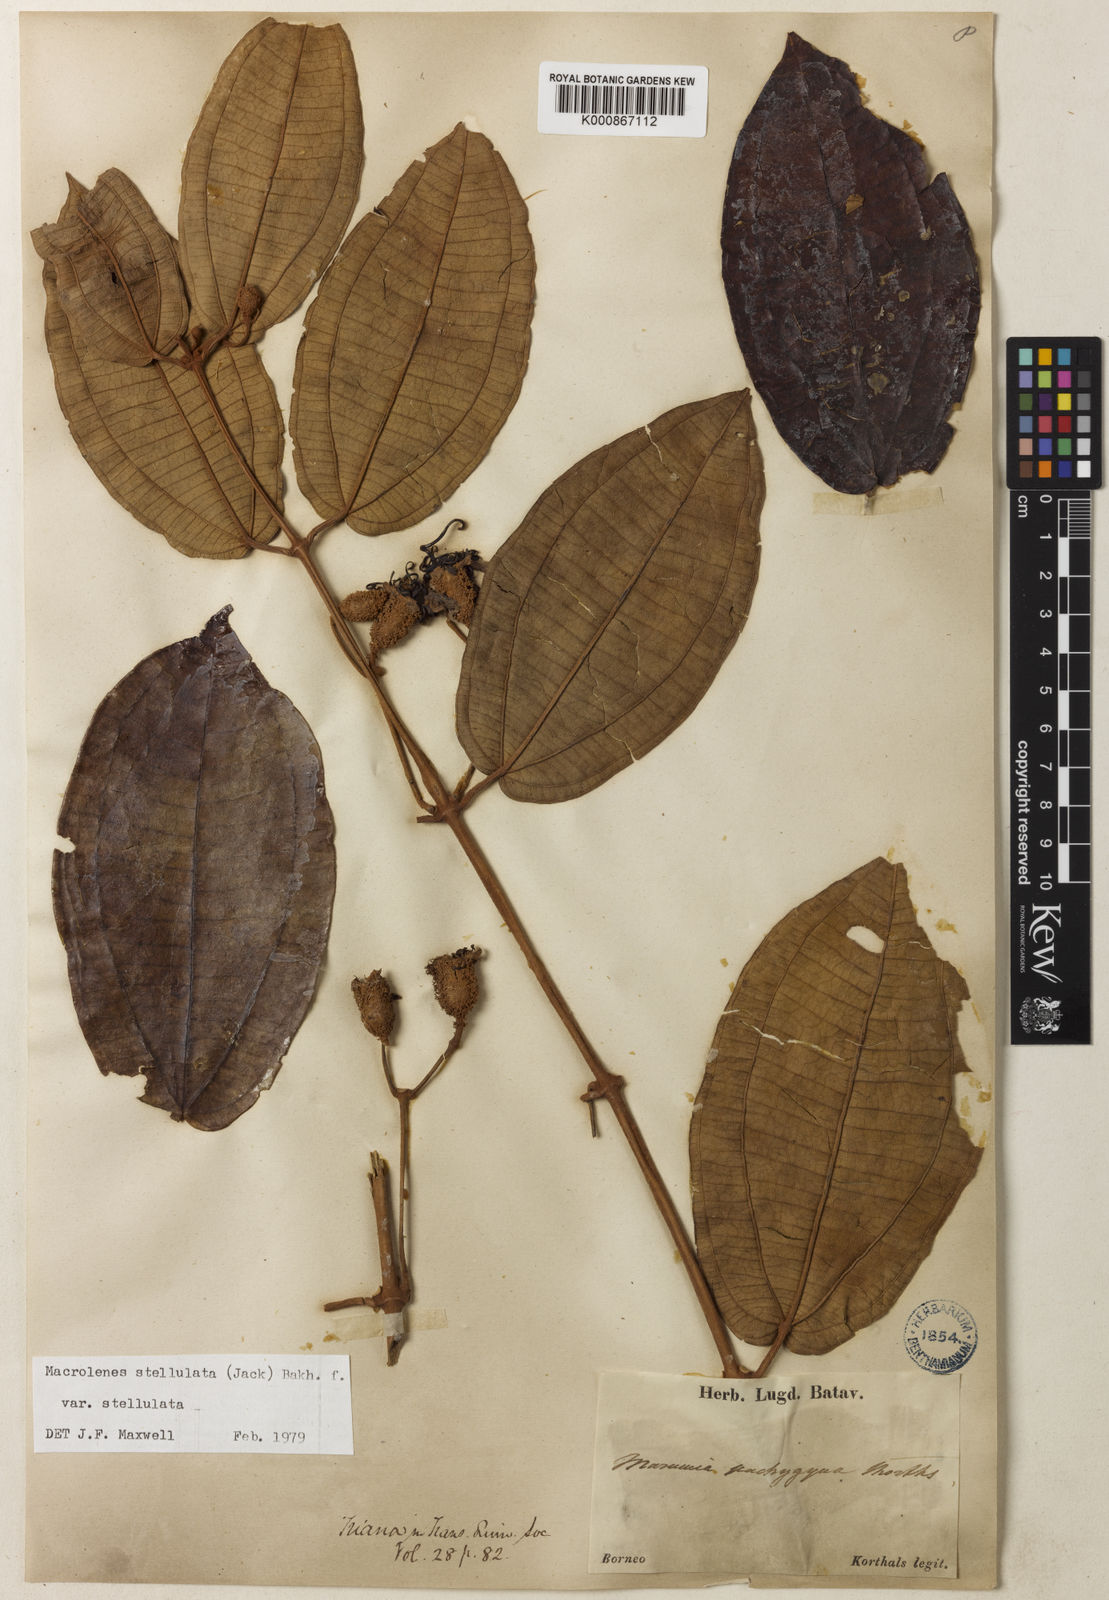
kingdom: Plantae
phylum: Tracheophyta
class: Magnoliopsida
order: Myrtales
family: Melastomataceae
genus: Macrolenes
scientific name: Macrolenes stellulata
